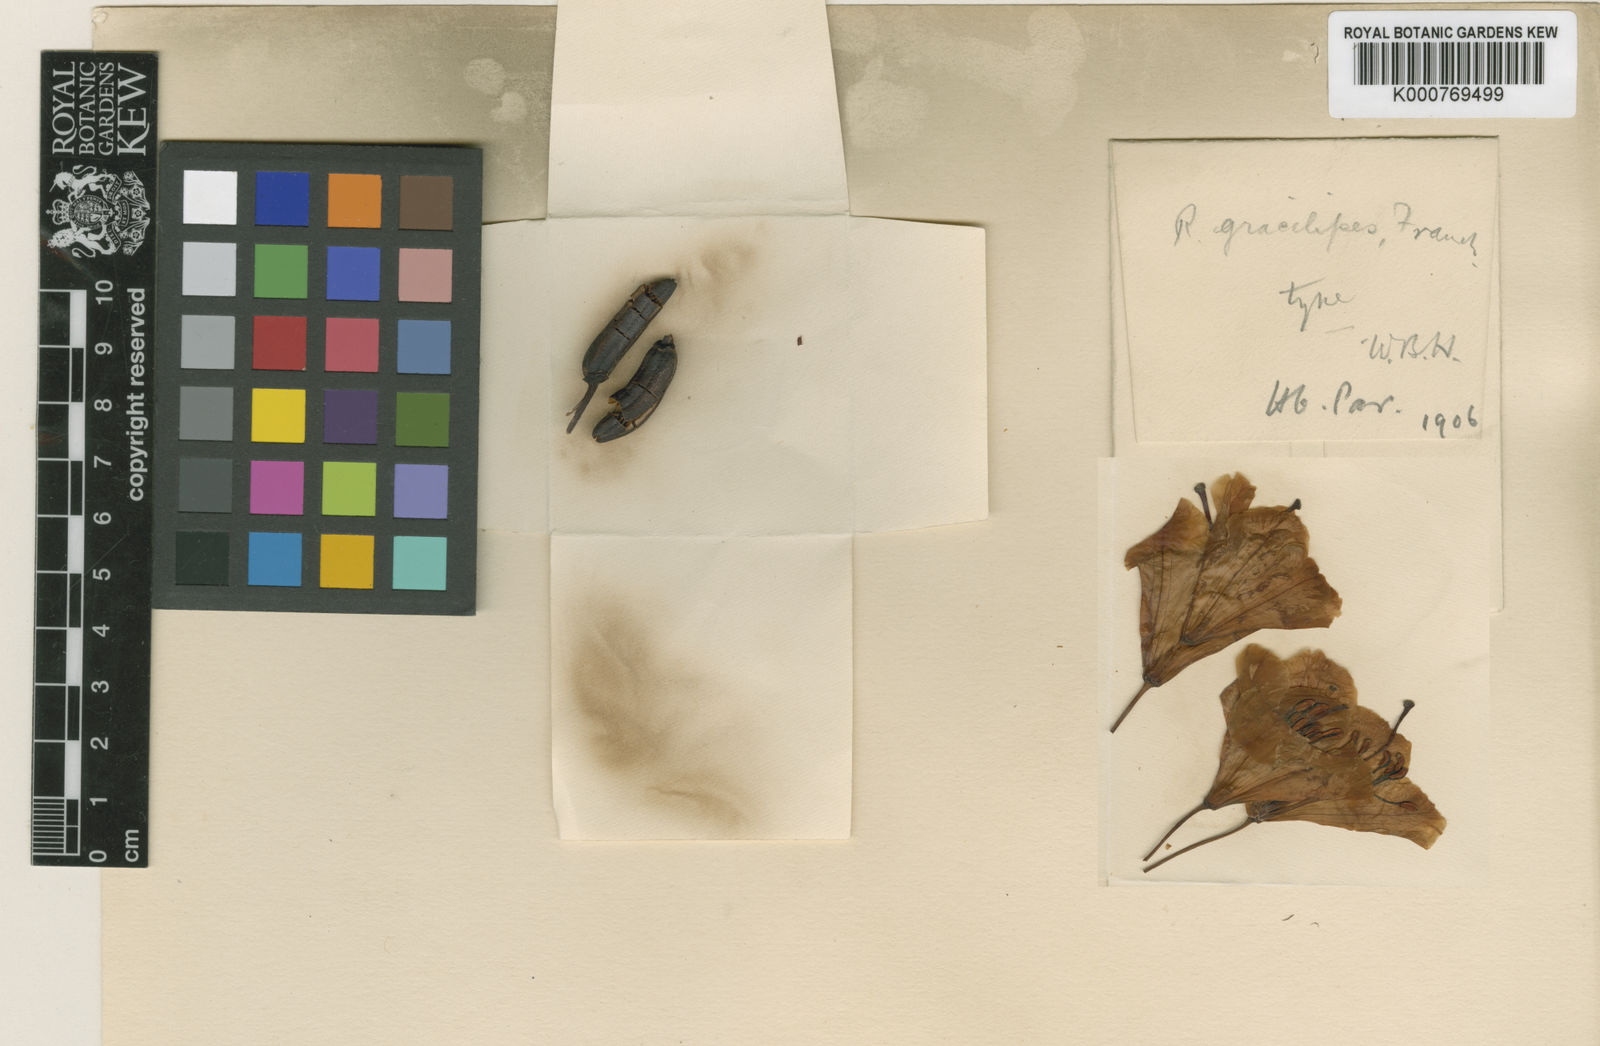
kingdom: Plantae
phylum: Tracheophyta
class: Magnoliopsida
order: Ericales
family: Ericaceae
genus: Rhododendron
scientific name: Rhododendron hypoglaucum
